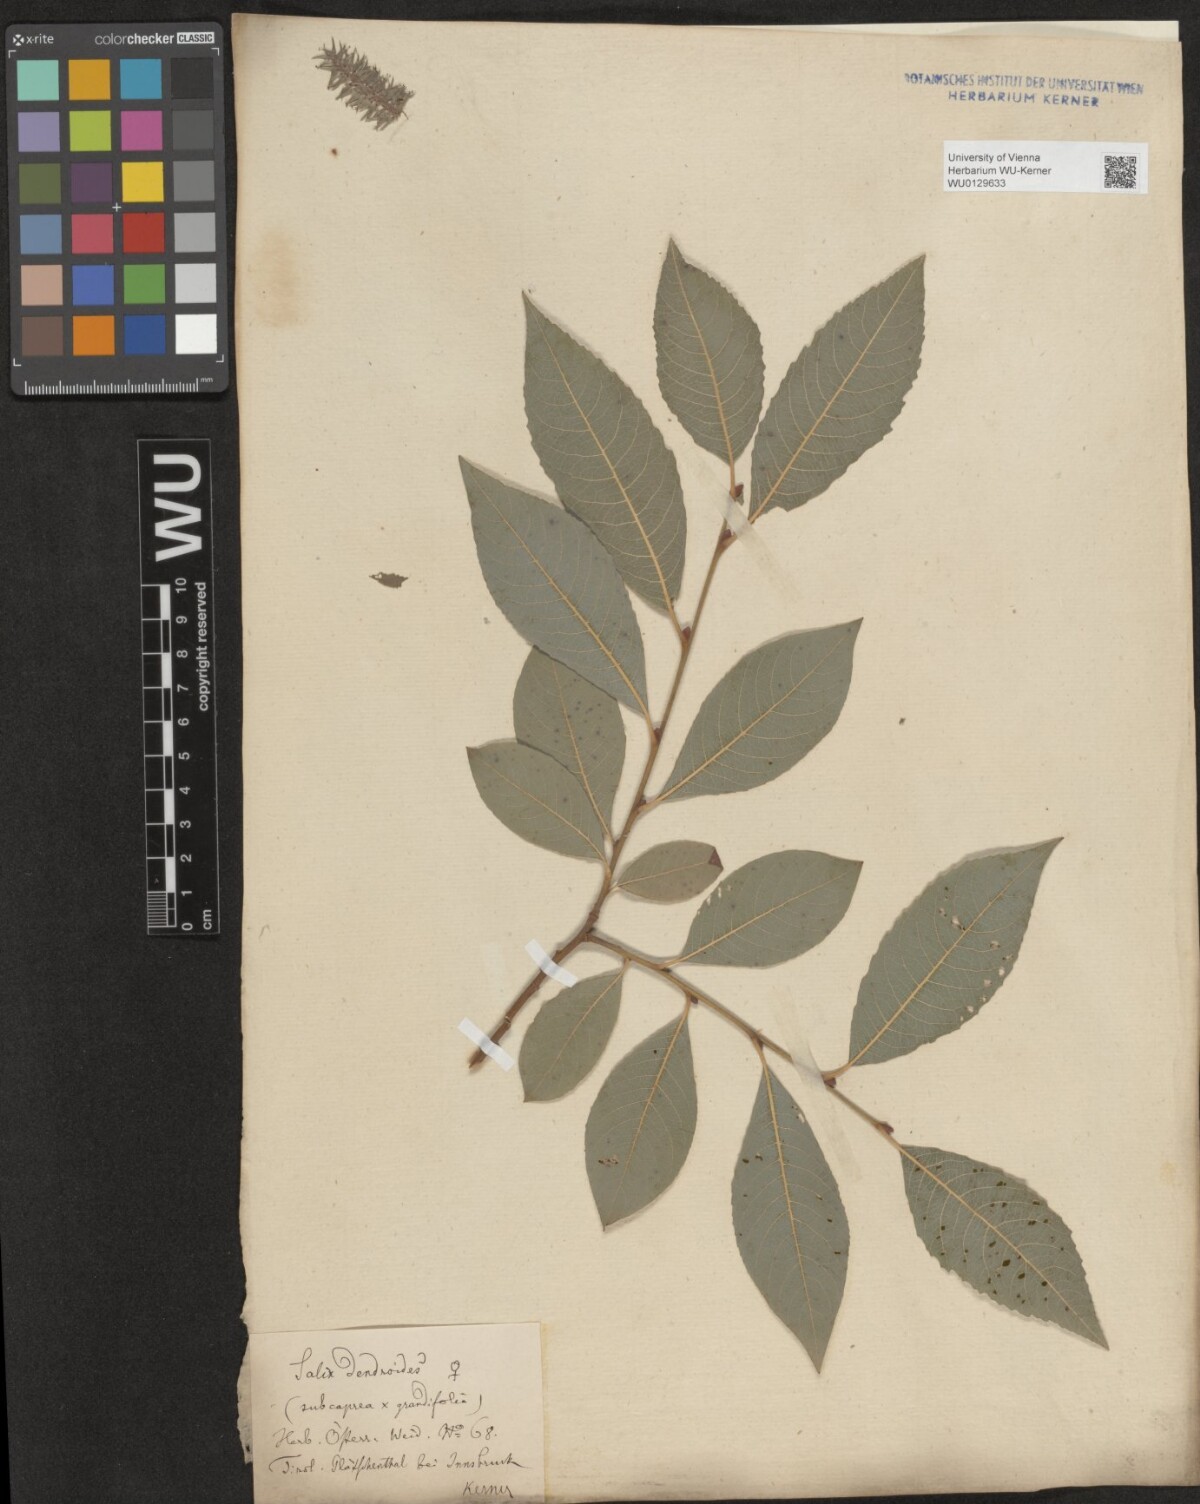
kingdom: Plantae
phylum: Tracheophyta
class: Magnoliopsida
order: Malpighiales
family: Salicaceae
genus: Salix
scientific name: Salix dendroides
